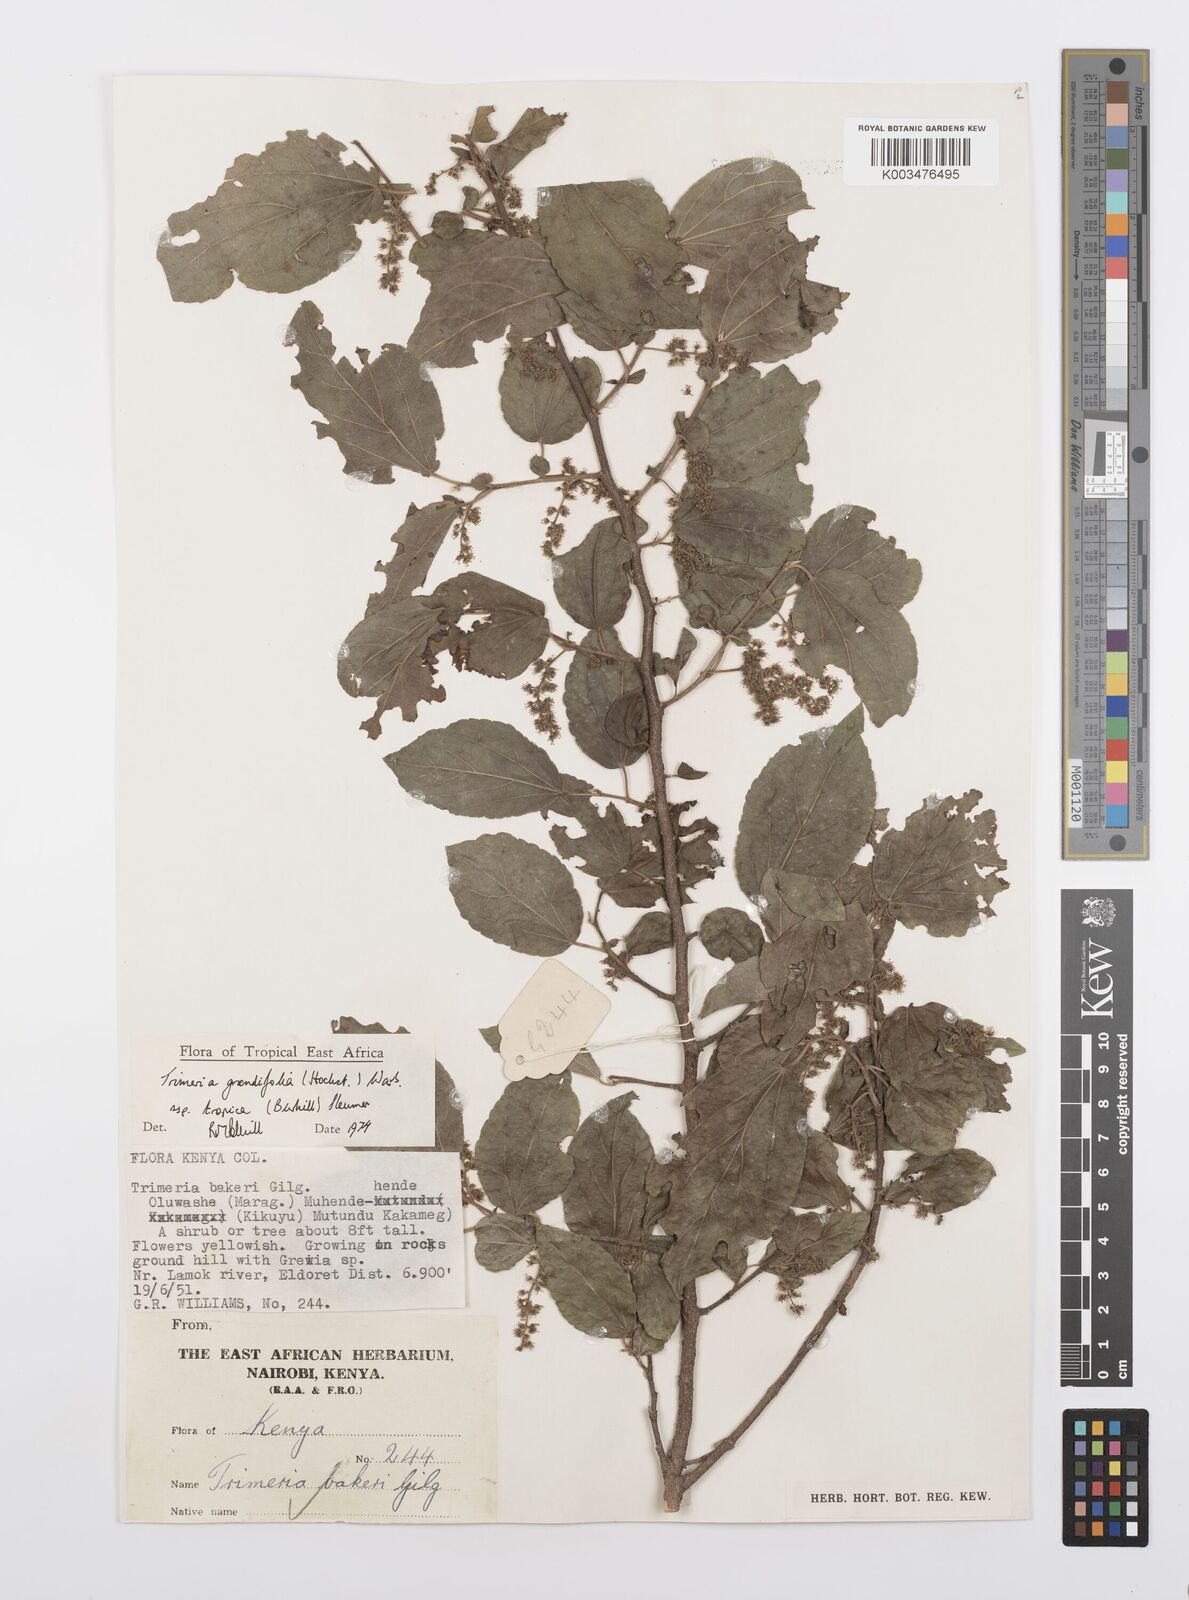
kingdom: Plantae
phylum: Tracheophyta
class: Magnoliopsida
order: Malpighiales
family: Salicaceae
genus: Trimeria
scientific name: Trimeria grandifolia
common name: Wild mulberry
